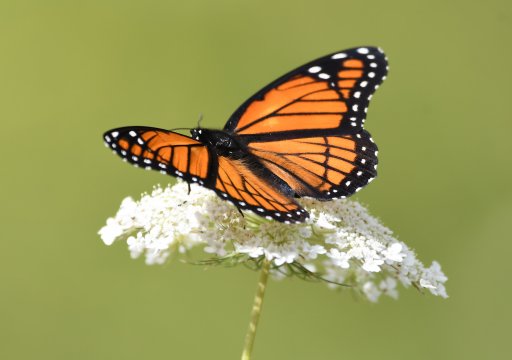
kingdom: Animalia
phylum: Arthropoda
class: Insecta
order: Lepidoptera
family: Nymphalidae
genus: Limenitis
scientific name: Limenitis archippus
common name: Viceroy
